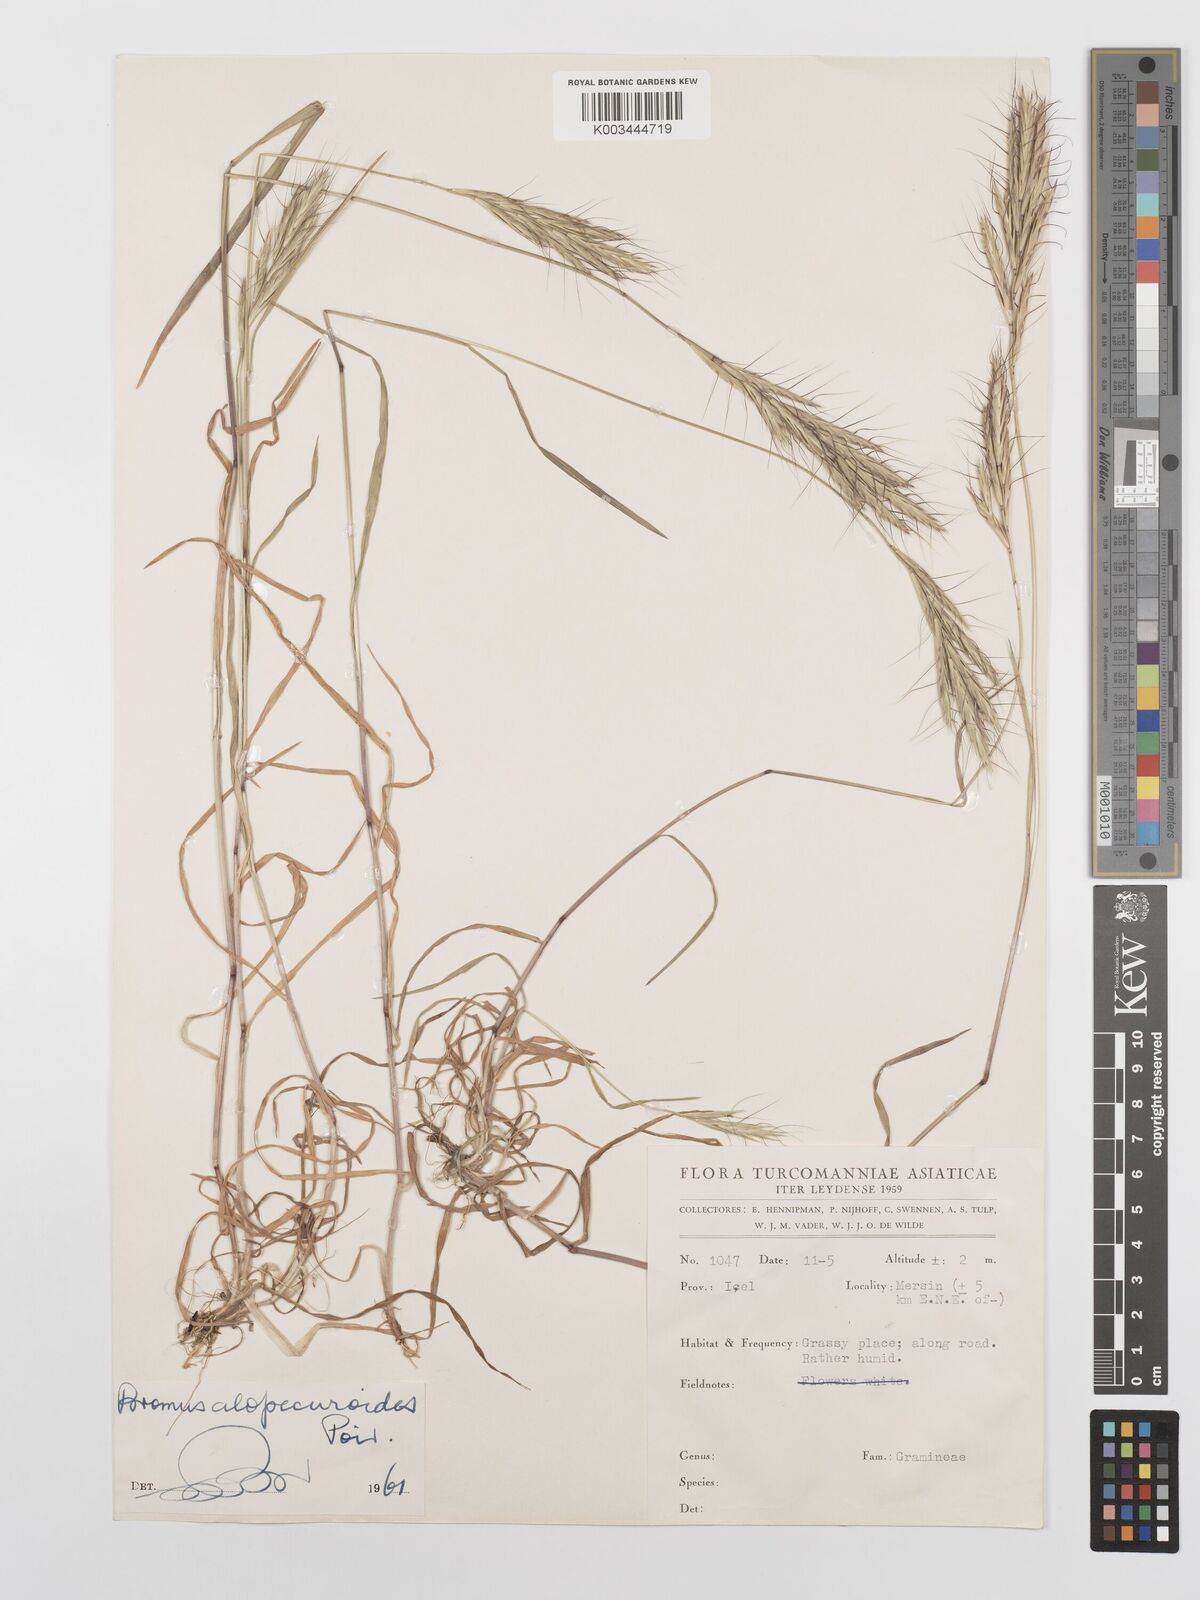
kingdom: Plantae
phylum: Tracheophyta
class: Liliopsida
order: Poales
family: Poaceae
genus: Bromus
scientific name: Bromus alopecuros
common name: Weedy brome
